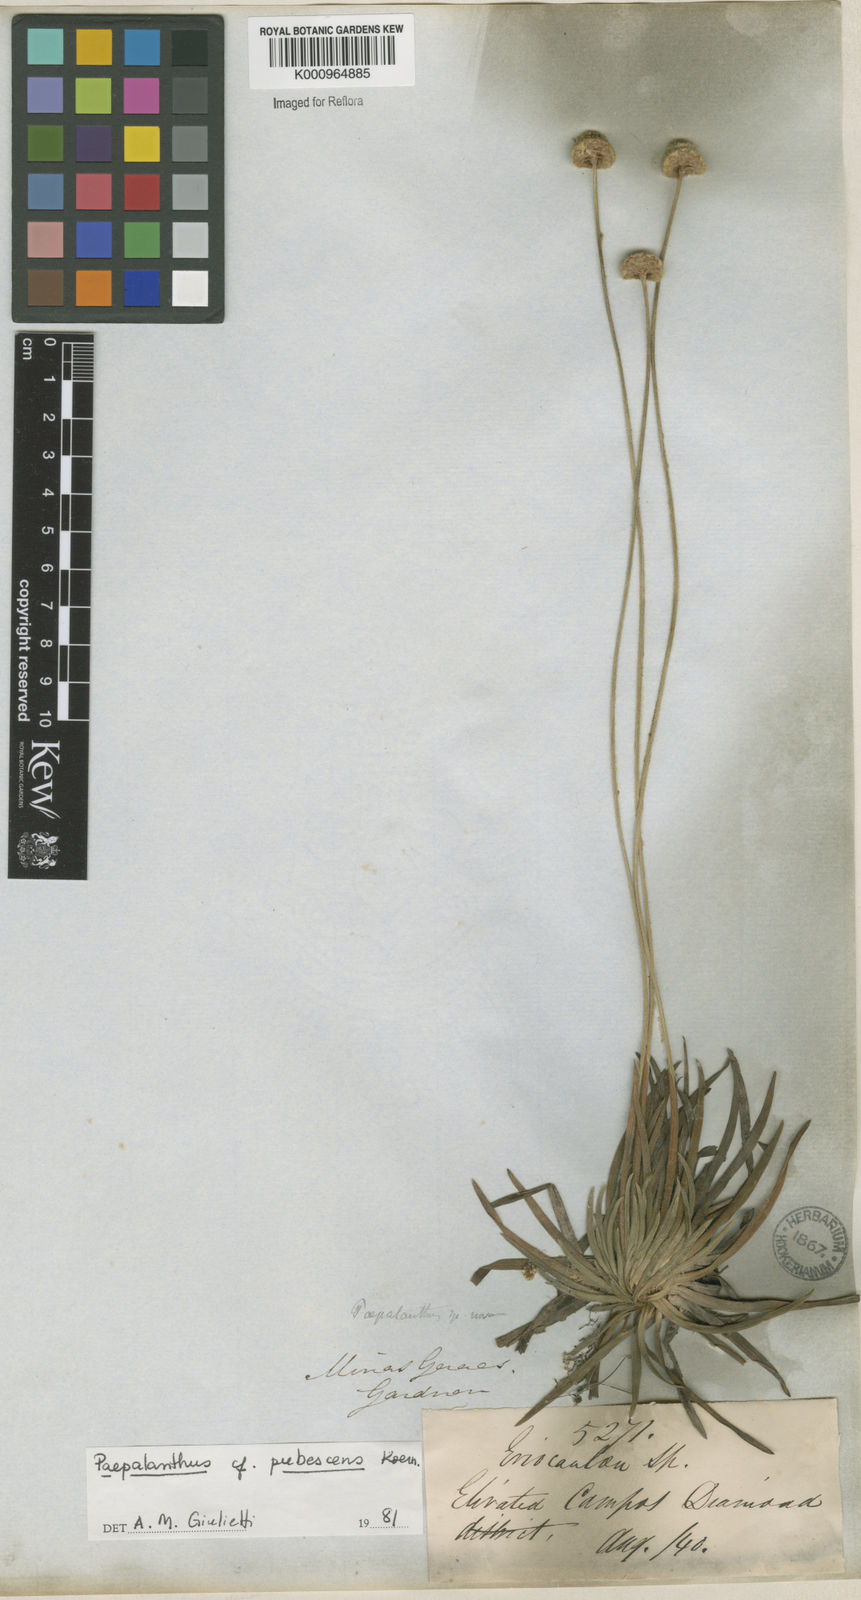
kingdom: Plantae
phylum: Tracheophyta
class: Liliopsida
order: Poales
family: Eriocaulaceae
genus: Paepalanthus
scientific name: Paepalanthus
